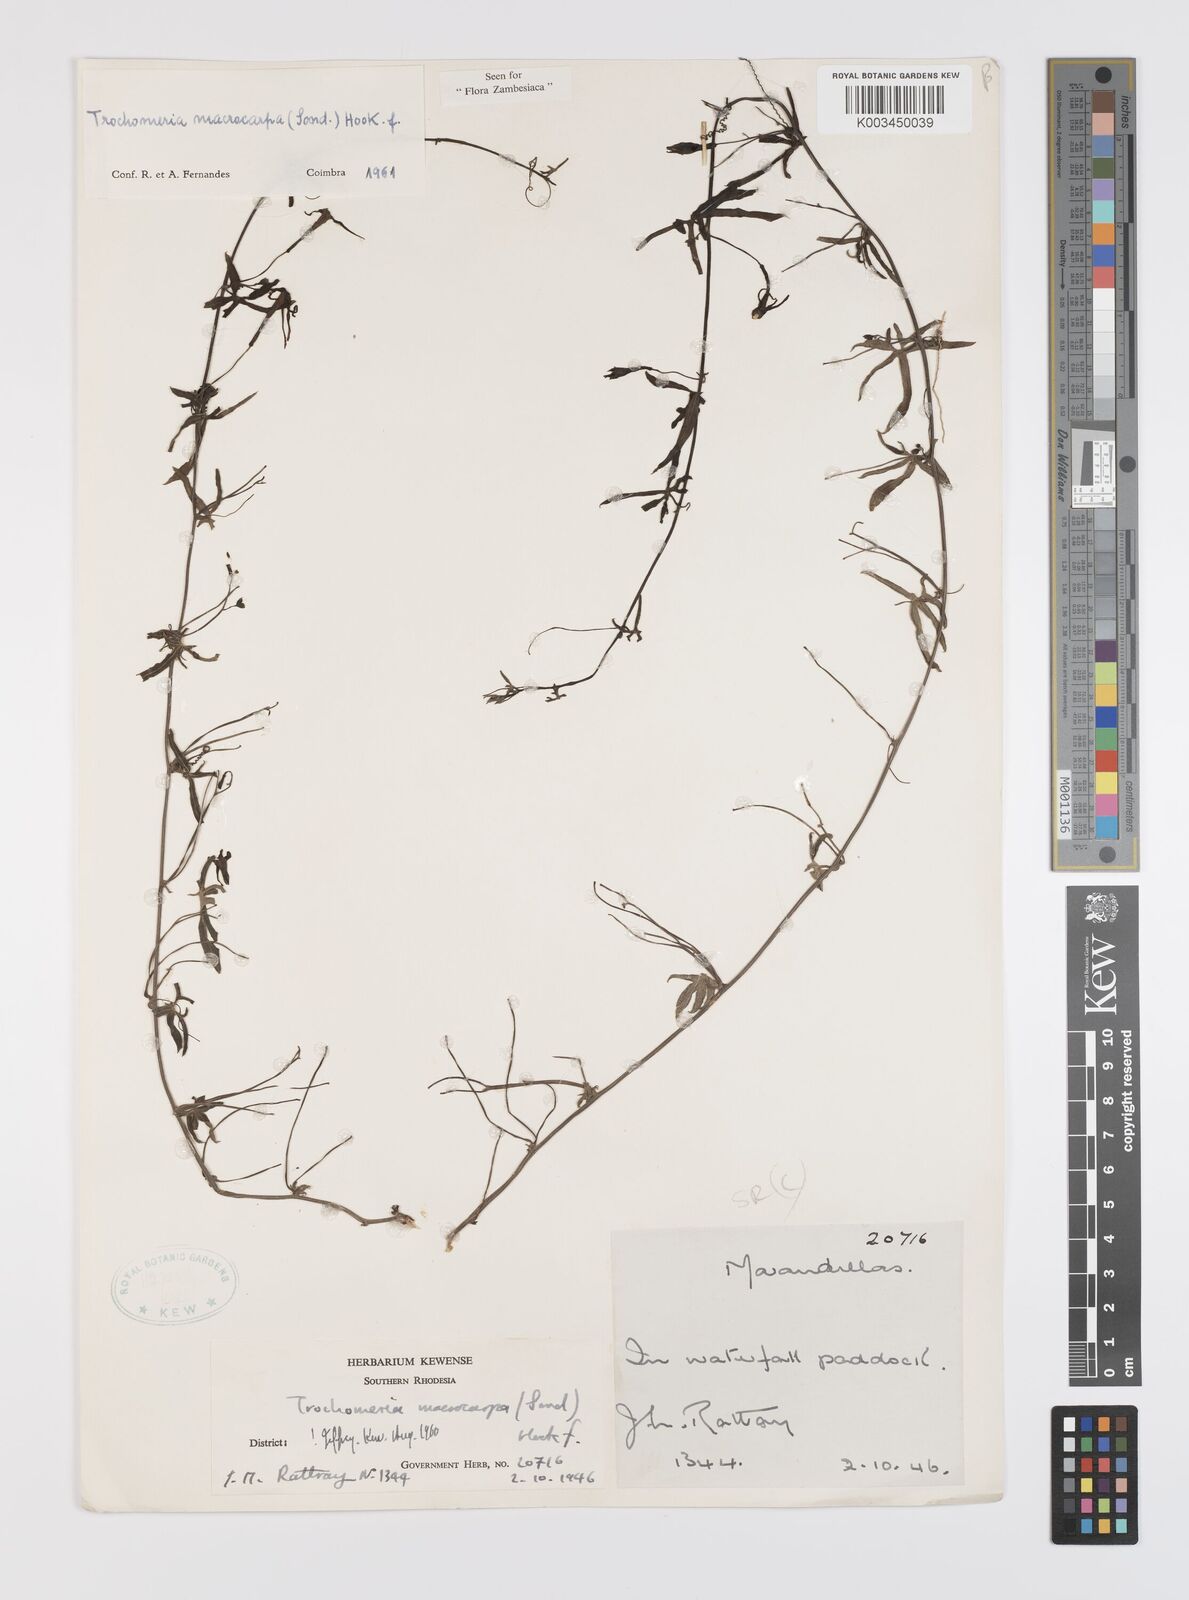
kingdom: Plantae
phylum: Tracheophyta
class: Magnoliopsida
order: Cucurbitales
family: Cucurbitaceae
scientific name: Cucurbitaceae
